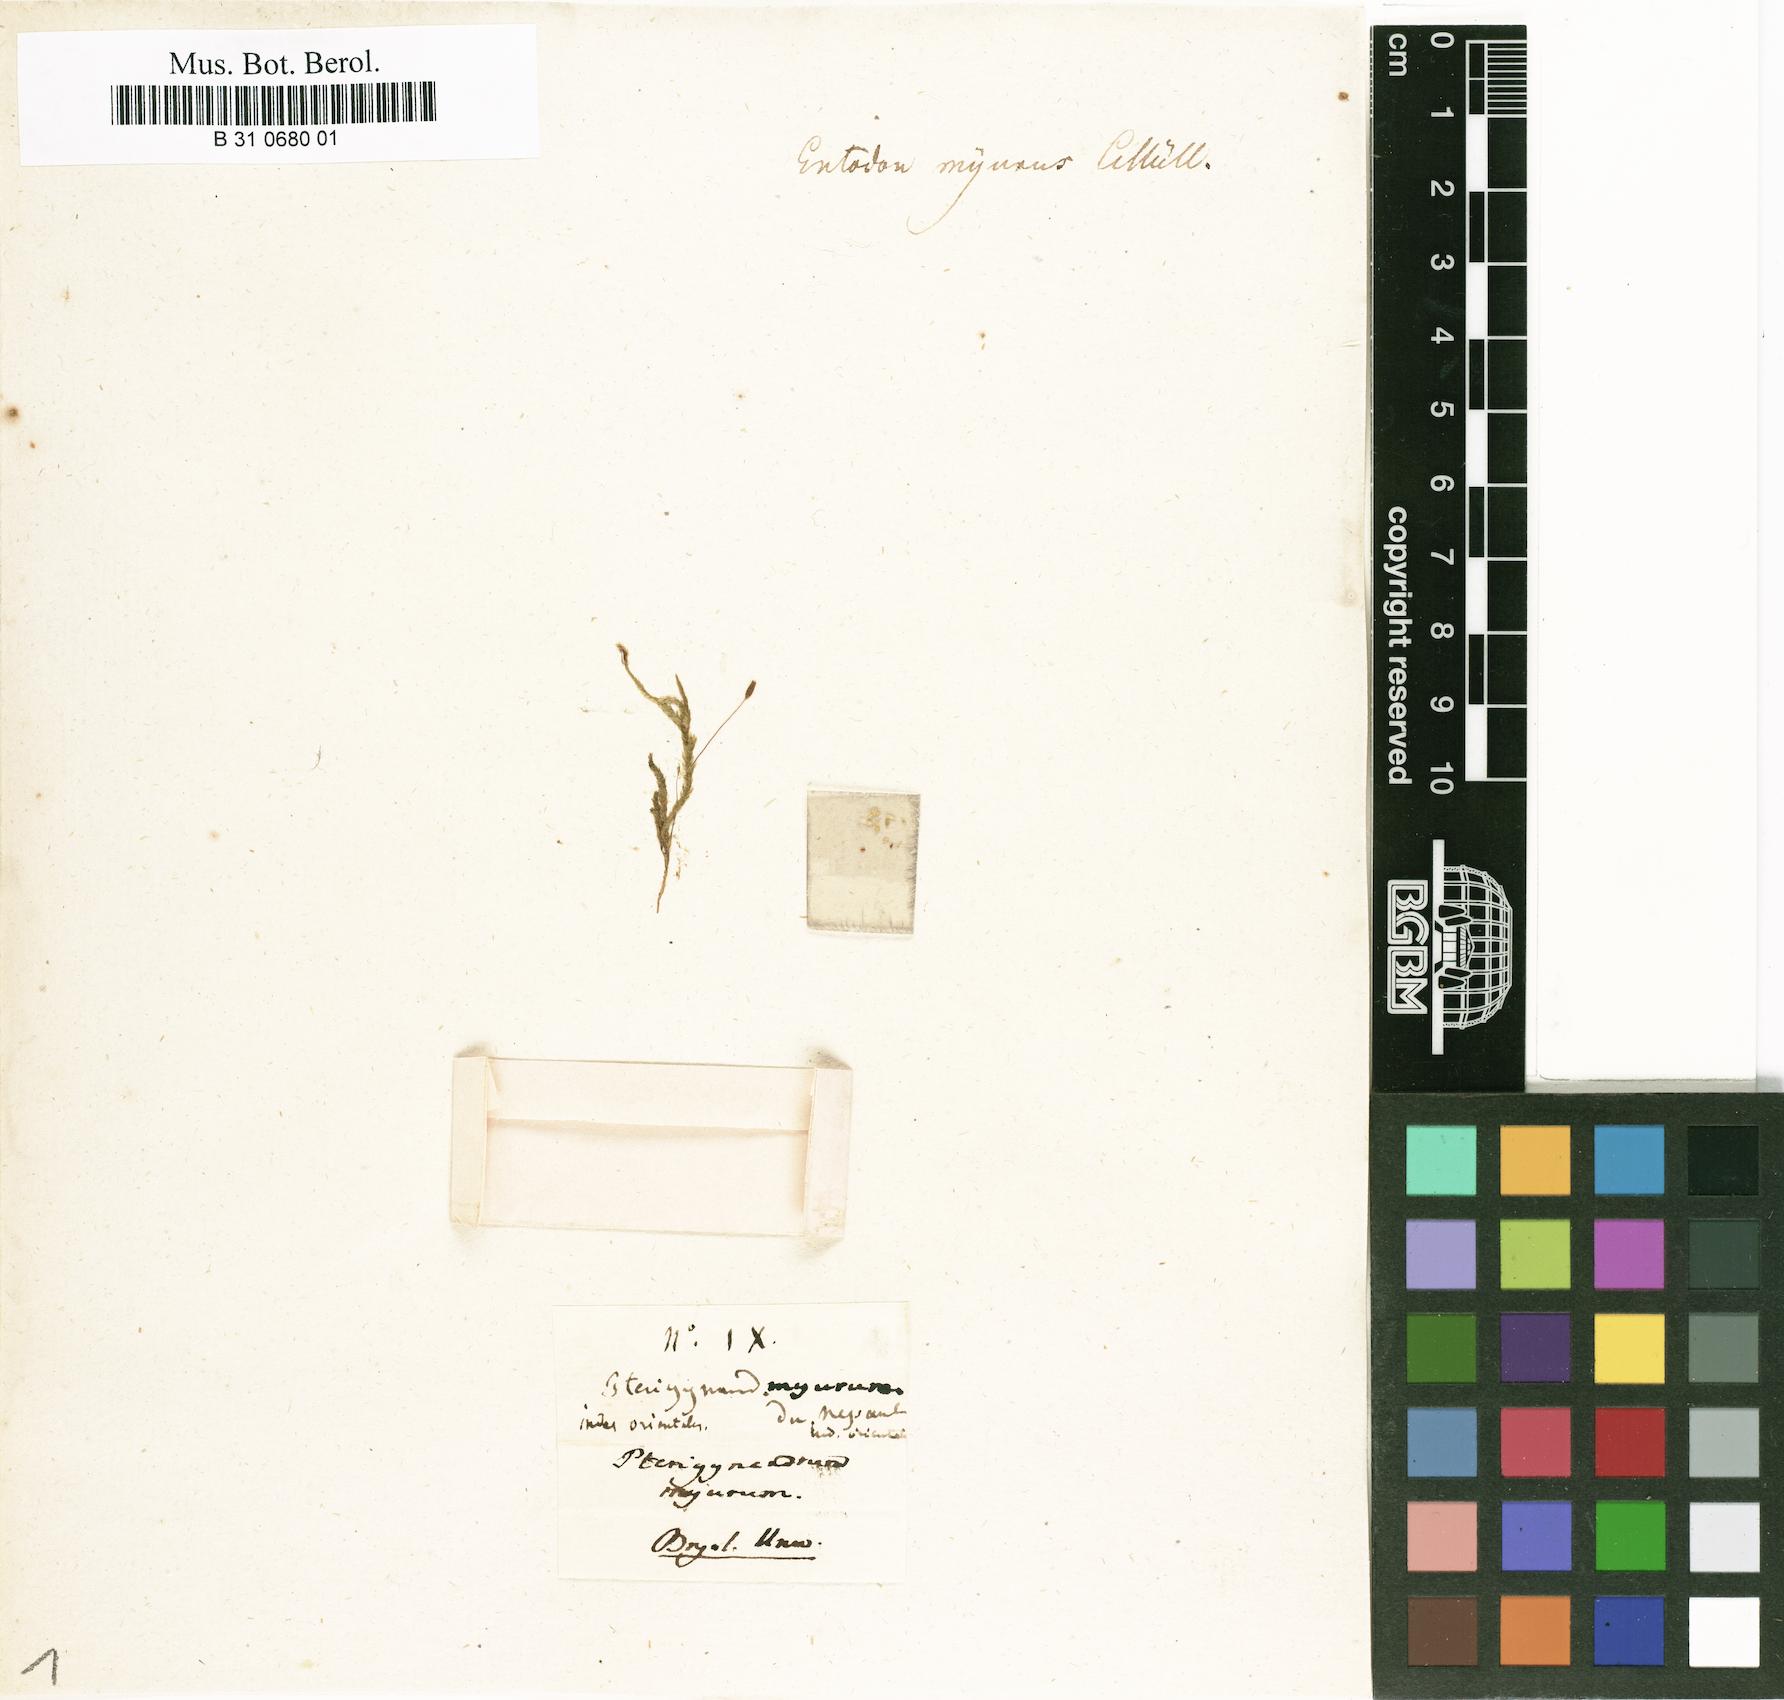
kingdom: Plantae
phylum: Bryophyta
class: Bryopsida
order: Hypnales
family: Entodontaceae
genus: Entodon
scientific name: Entodon myurus
